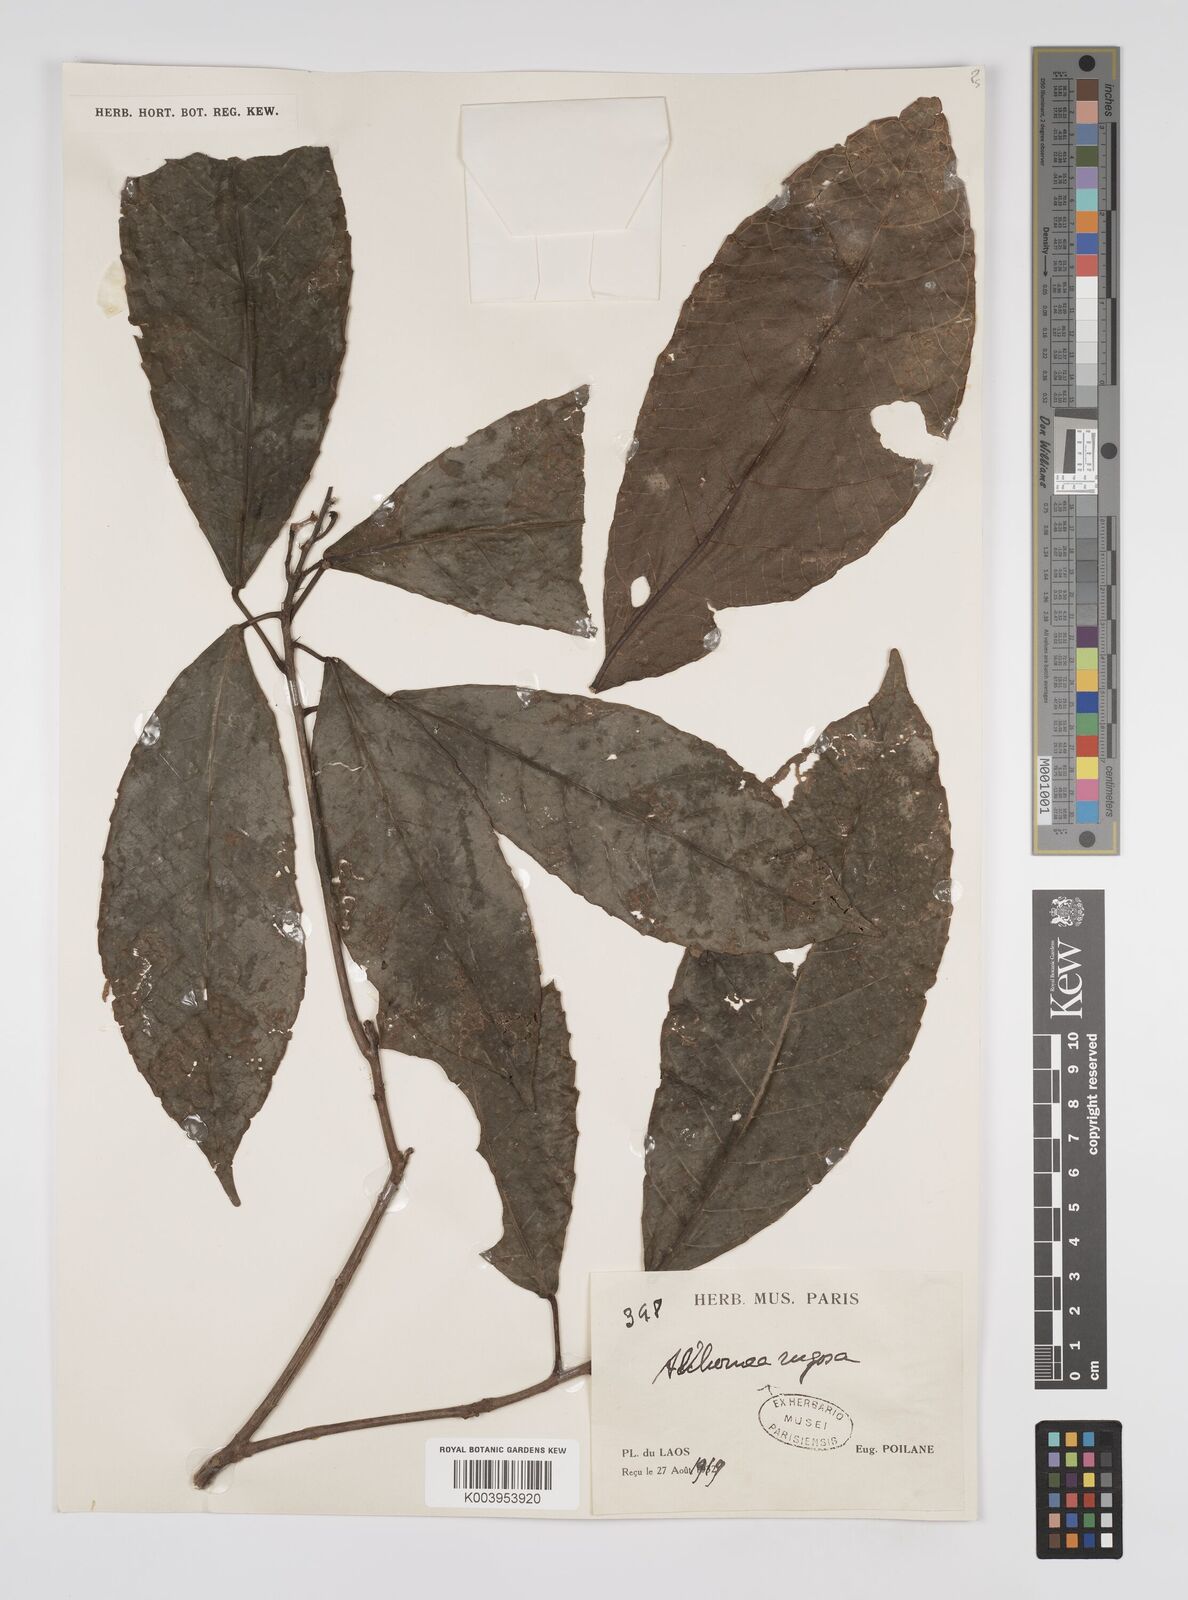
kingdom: Plantae
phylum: Tracheophyta
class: Magnoliopsida
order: Malpighiales
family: Euphorbiaceae
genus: Alchornea
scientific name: Alchornea rugosa
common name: Alchorntree
